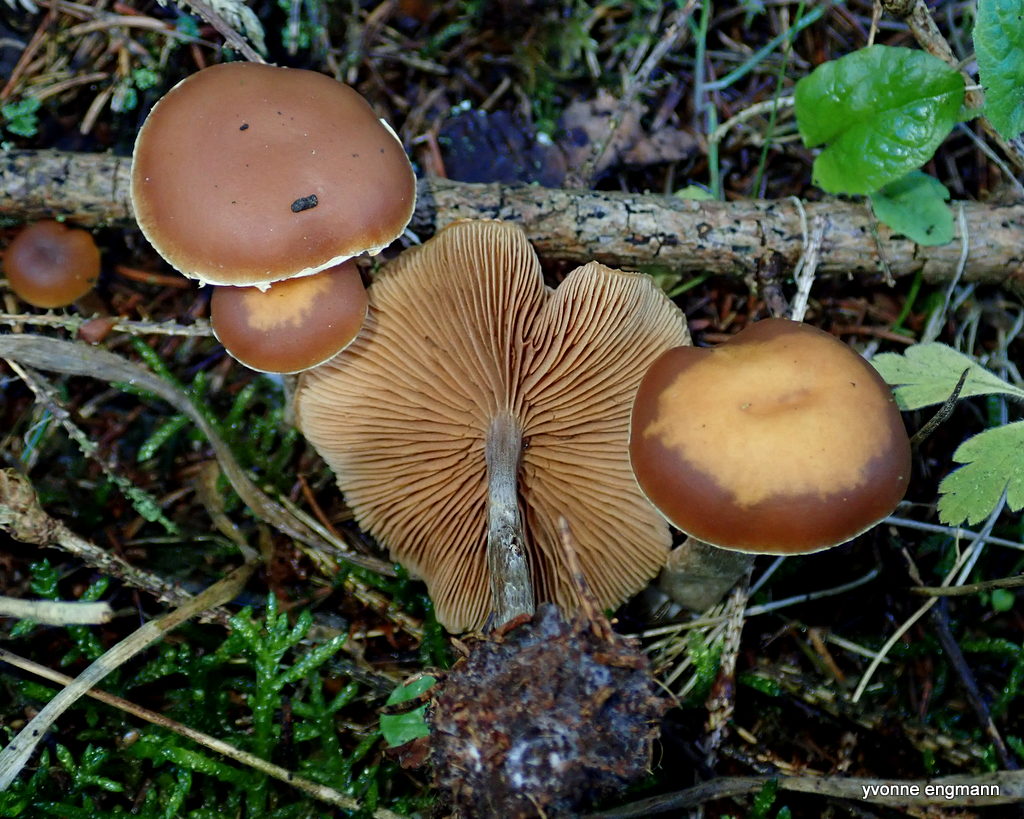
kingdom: Fungi
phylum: Basidiomycota
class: Agaricomycetes
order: Agaricales
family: Hymenogastraceae
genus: Galerina
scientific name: Galerina
